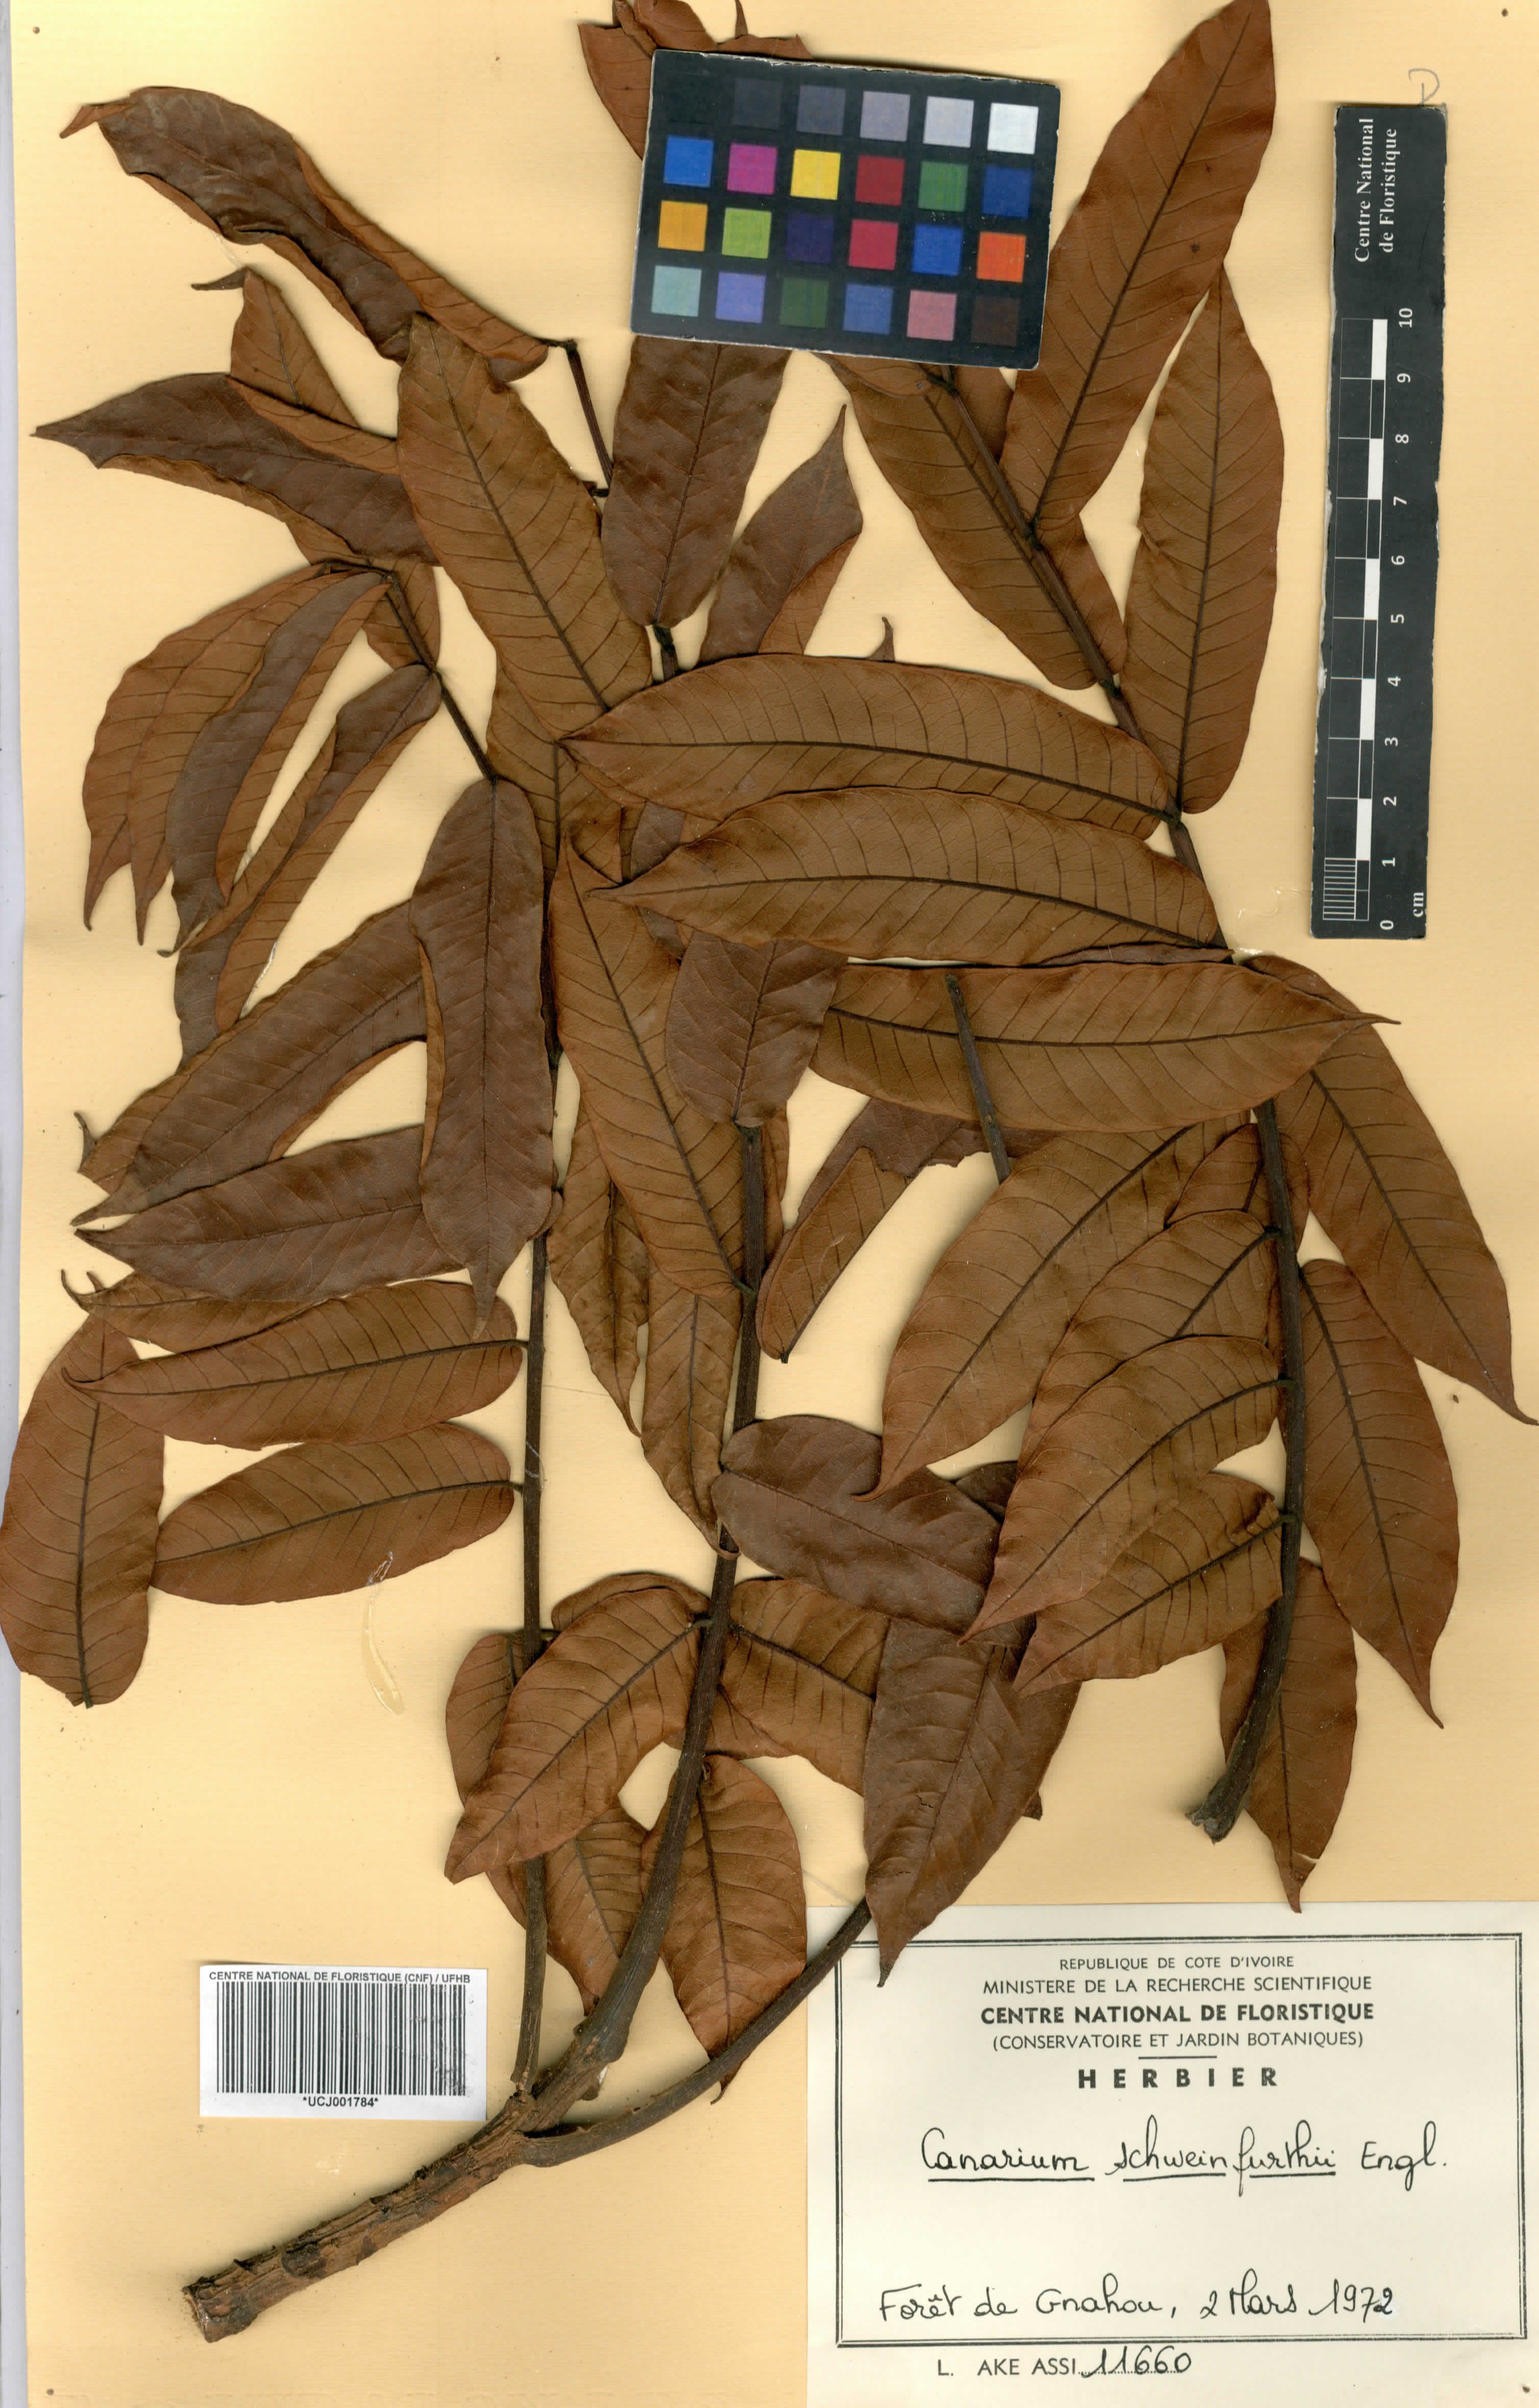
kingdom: Plantae
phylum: Tracheophyta
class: Magnoliopsida
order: Sapindales
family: Burseraceae
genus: Canarium
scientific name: Canarium schweinfurthii
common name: African elemi
